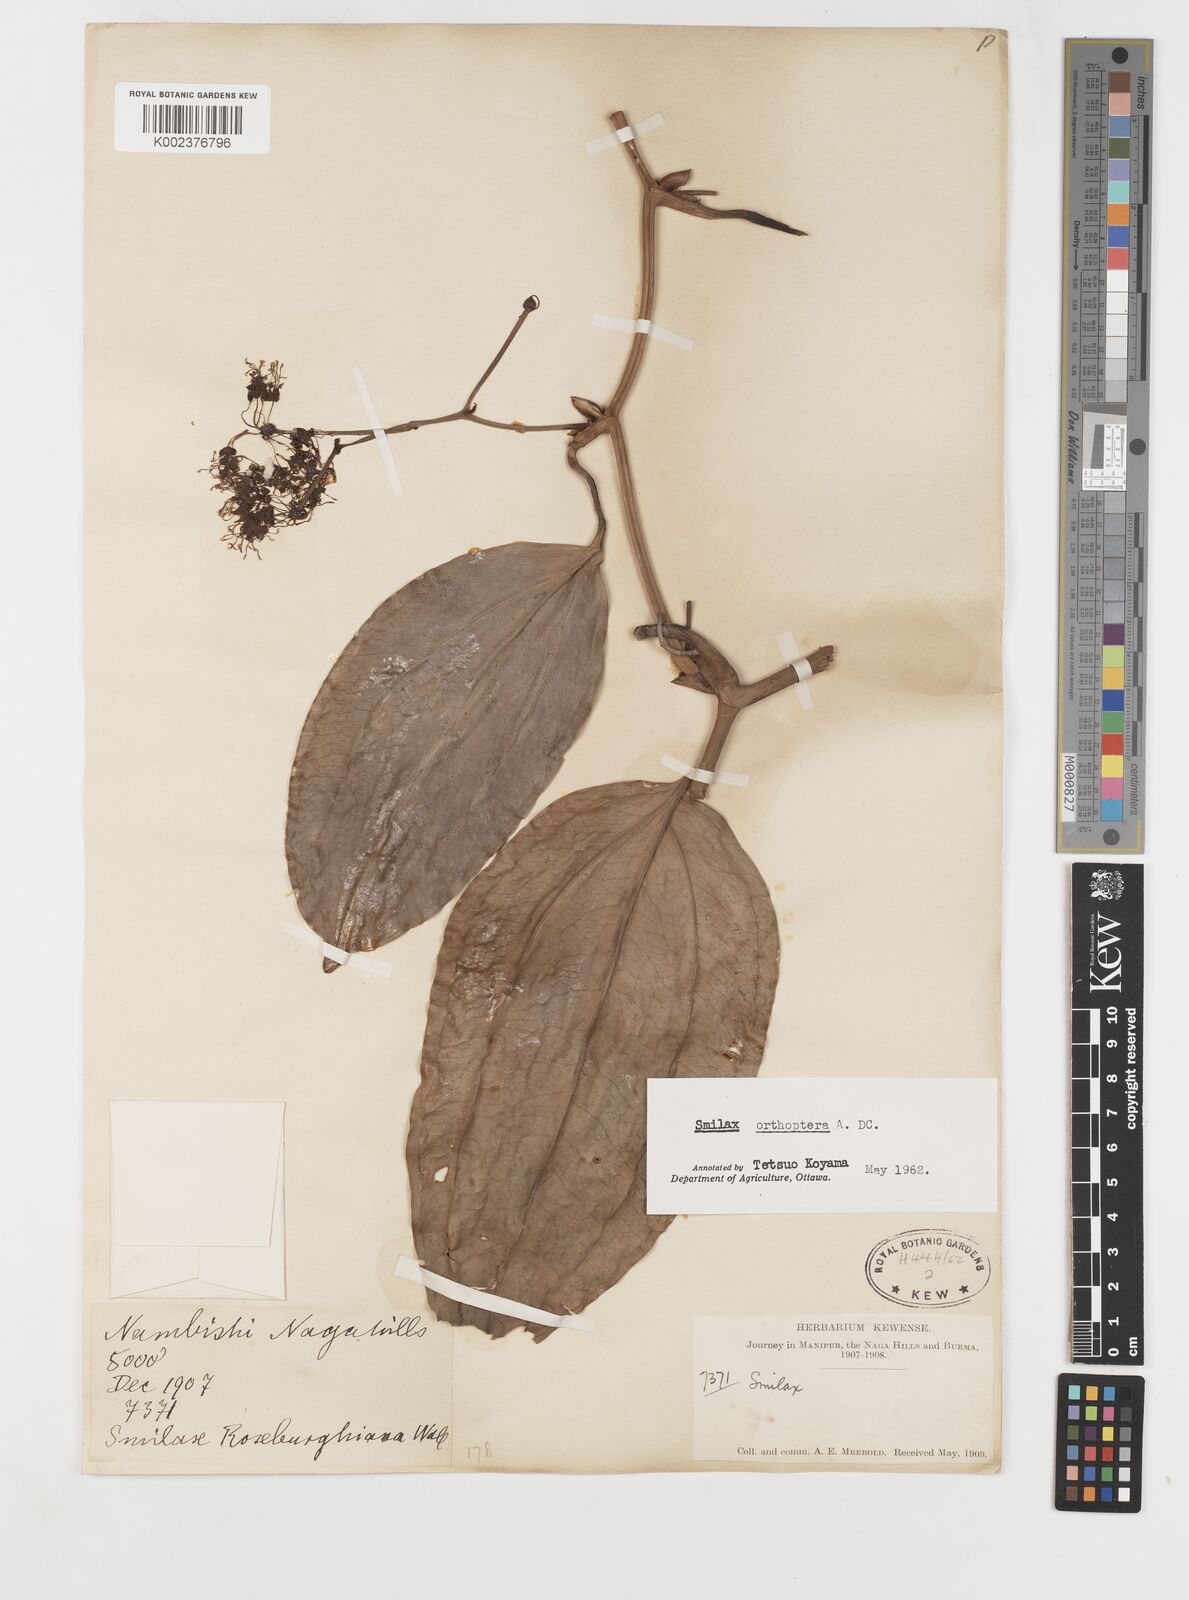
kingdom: Plantae
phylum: Tracheophyta
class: Liliopsida
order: Liliales
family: Smilacaceae
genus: Smilax
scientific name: Smilax orthoptera
